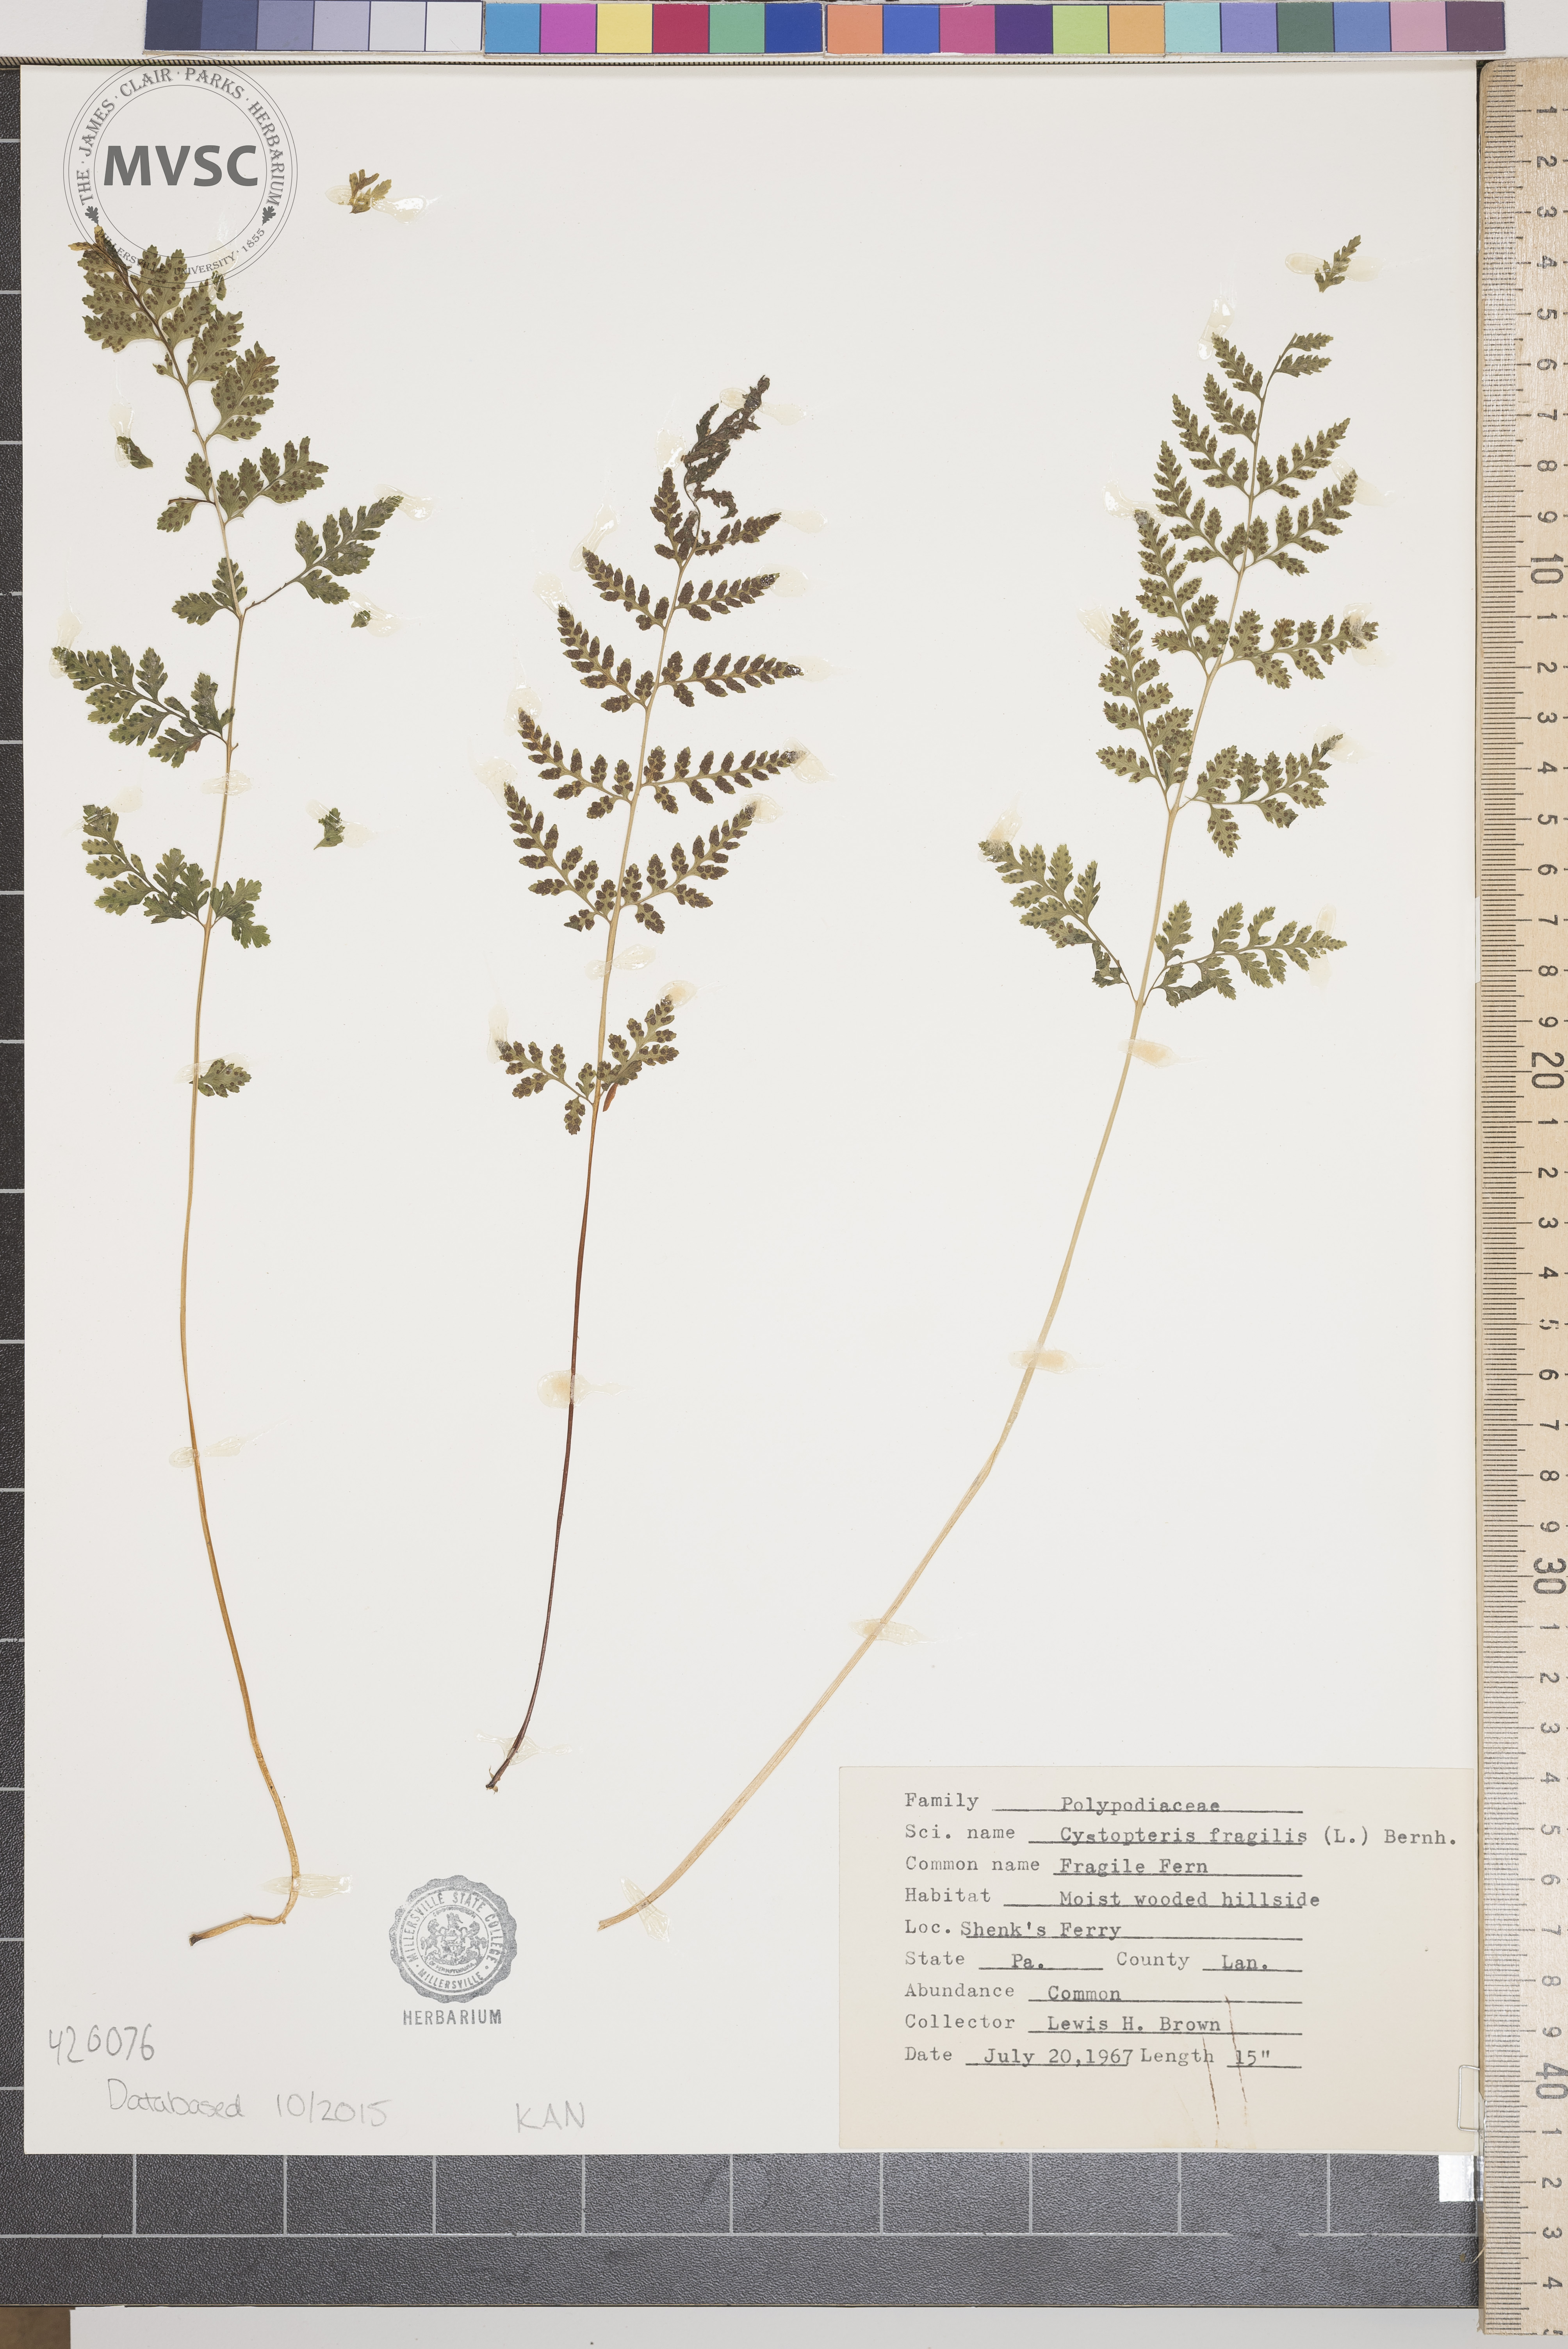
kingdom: Plantae
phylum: Tracheophyta
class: Polypodiopsida
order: Polypodiales
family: Cystopteridaceae
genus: Cystopteris
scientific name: Cystopteris tenuis
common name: Fragile Fern
